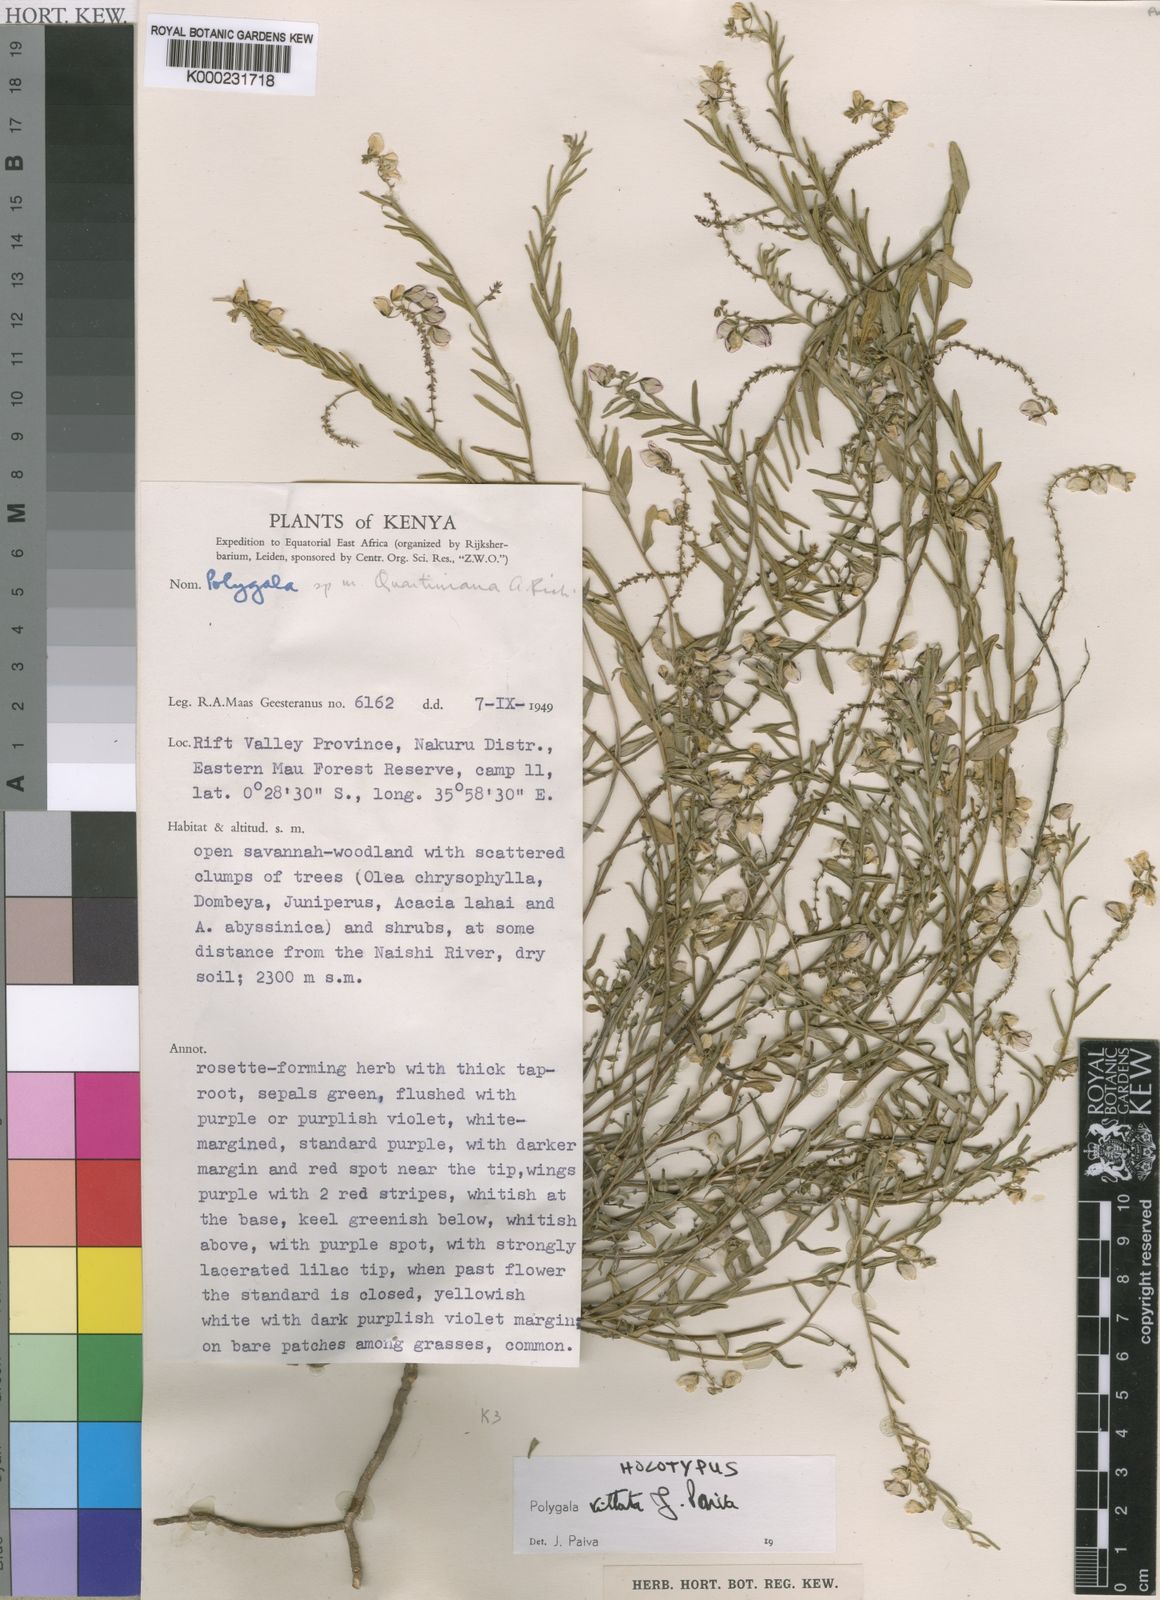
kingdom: Plantae
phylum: Tracheophyta
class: Magnoliopsida
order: Fabales
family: Polygalaceae
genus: Polygala
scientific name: Polygala vittata
